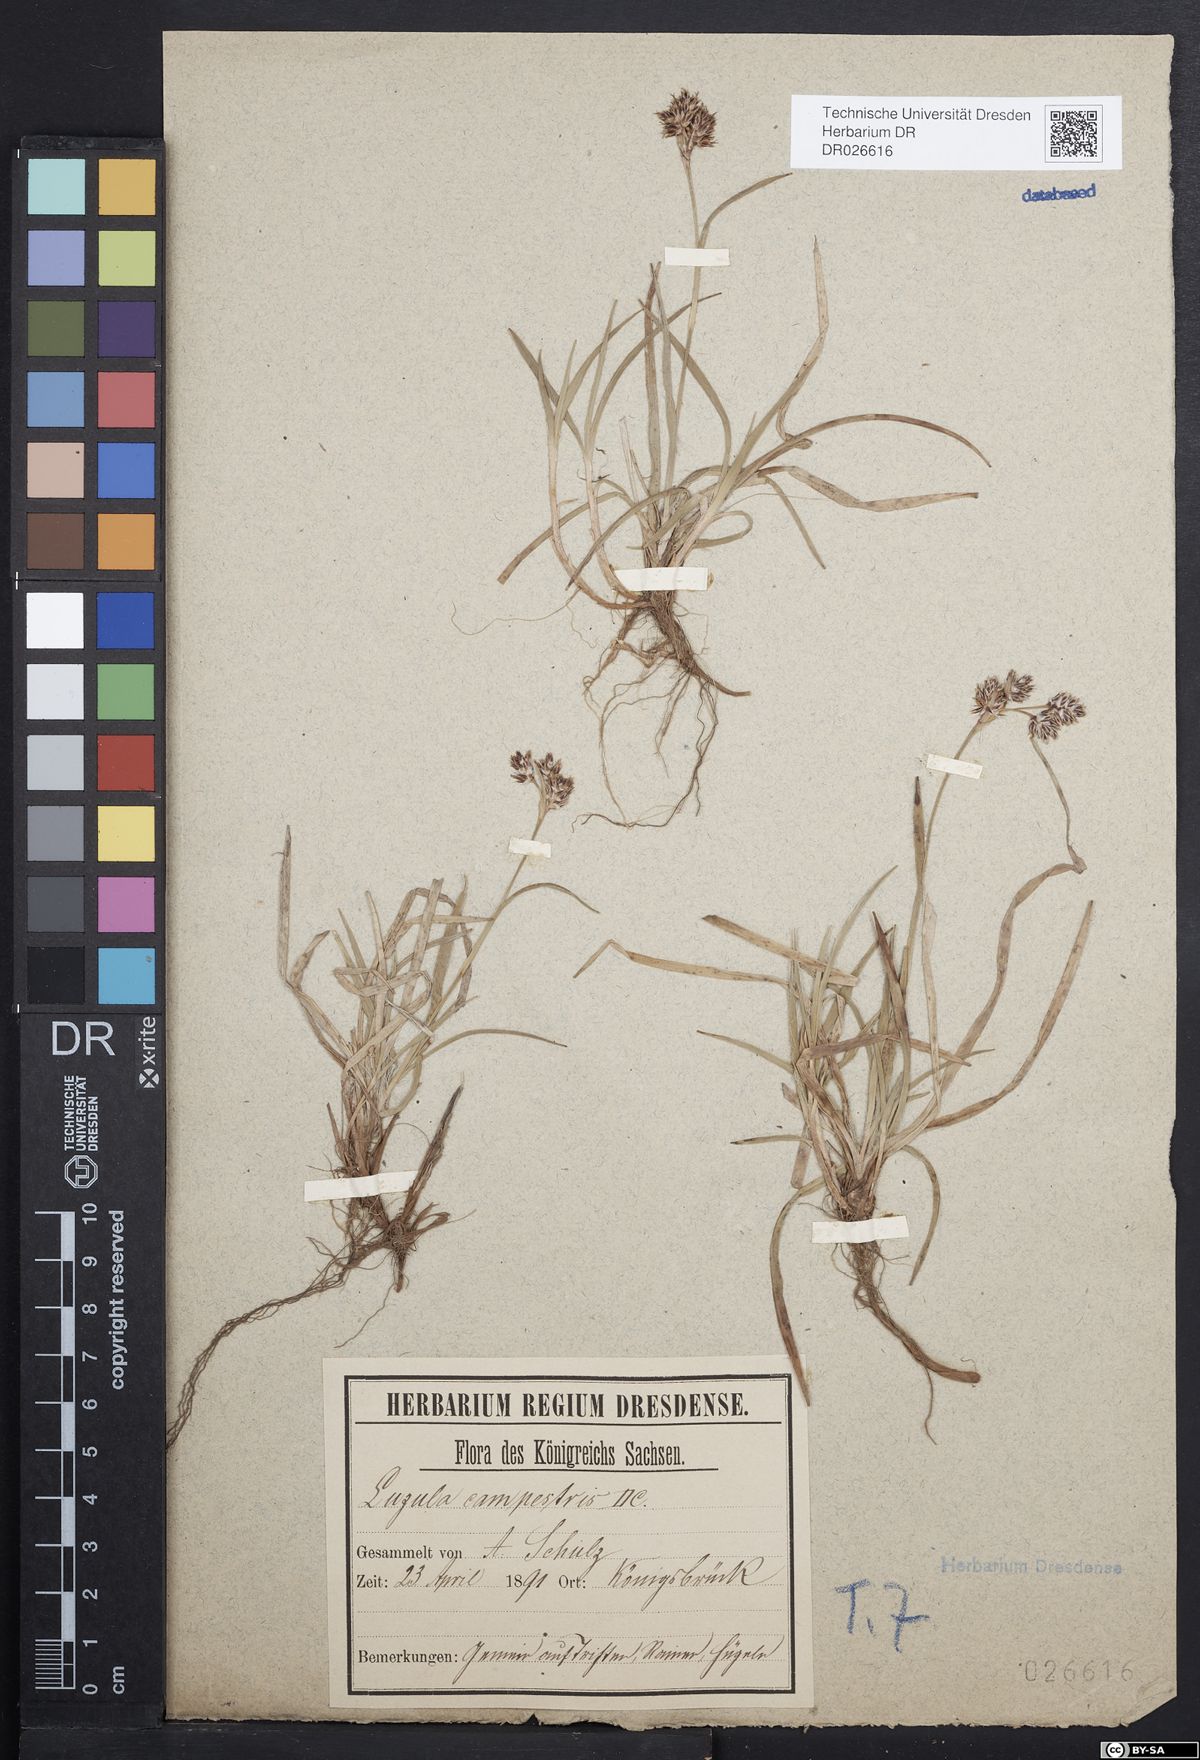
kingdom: Plantae
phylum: Tracheophyta
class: Liliopsida
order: Poales
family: Juncaceae
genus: Luzula
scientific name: Luzula campestris
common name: Field wood-rush
